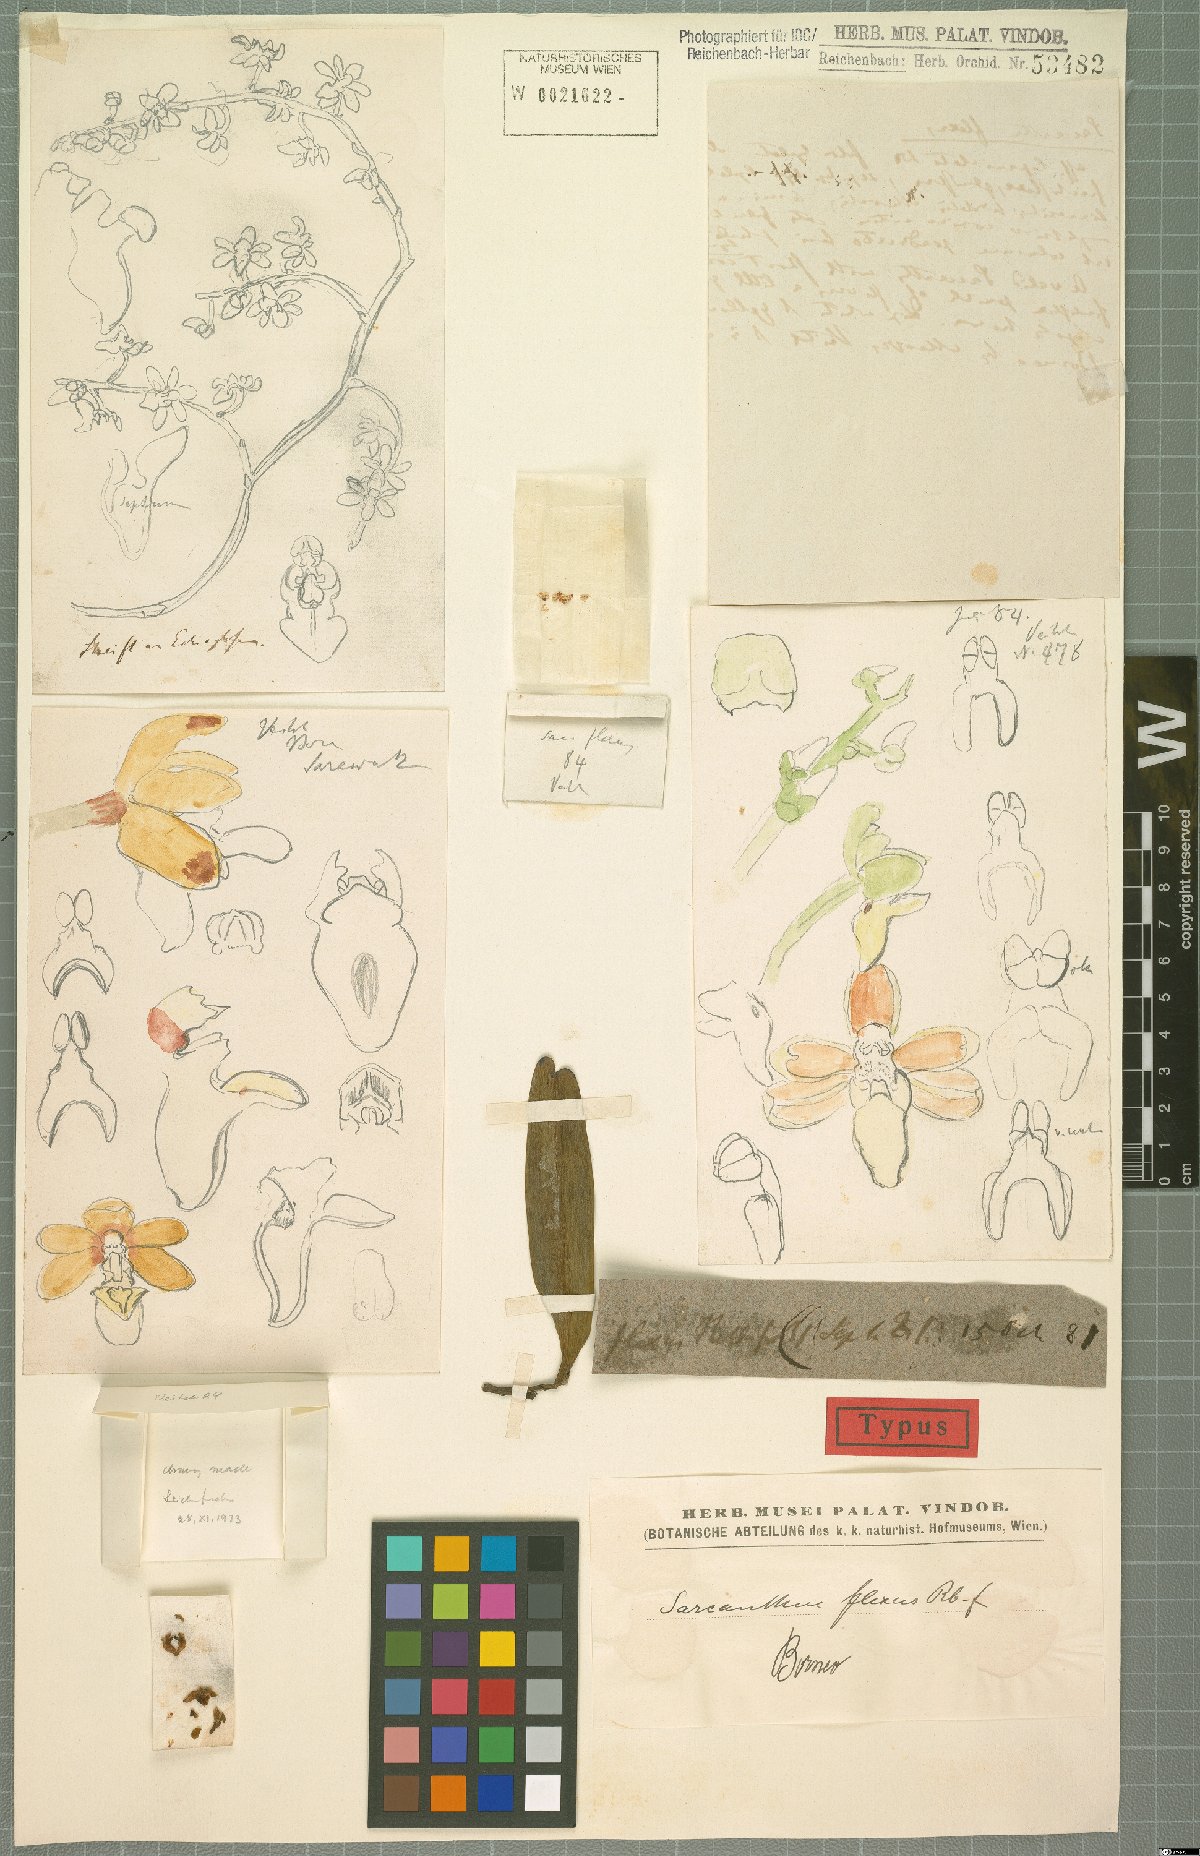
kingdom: Plantae
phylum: Tracheophyta
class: Liliopsida
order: Asparagales
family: Orchidaceae
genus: Cleisostoma
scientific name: Cleisostoma flexum
